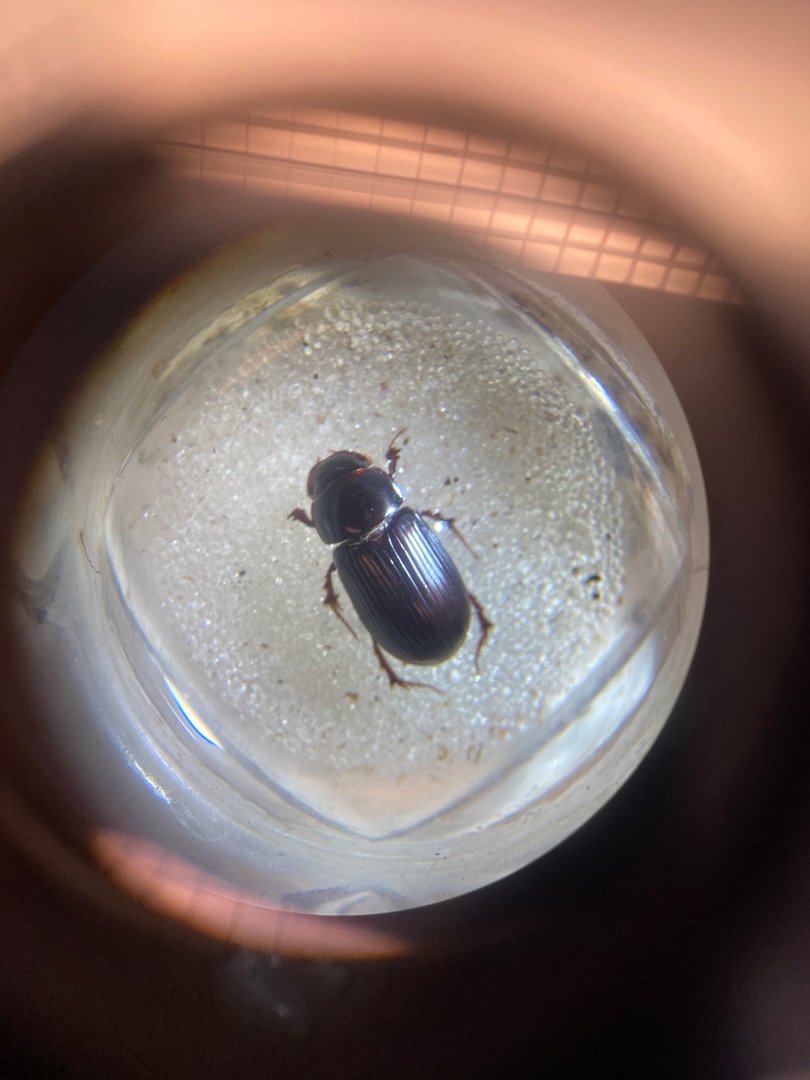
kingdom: Animalia
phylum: Arthropoda
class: Insecta
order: Coleoptera
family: Scarabaeidae
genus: Acrossus
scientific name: Acrossus rufipes
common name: Rødbenet møgbille
